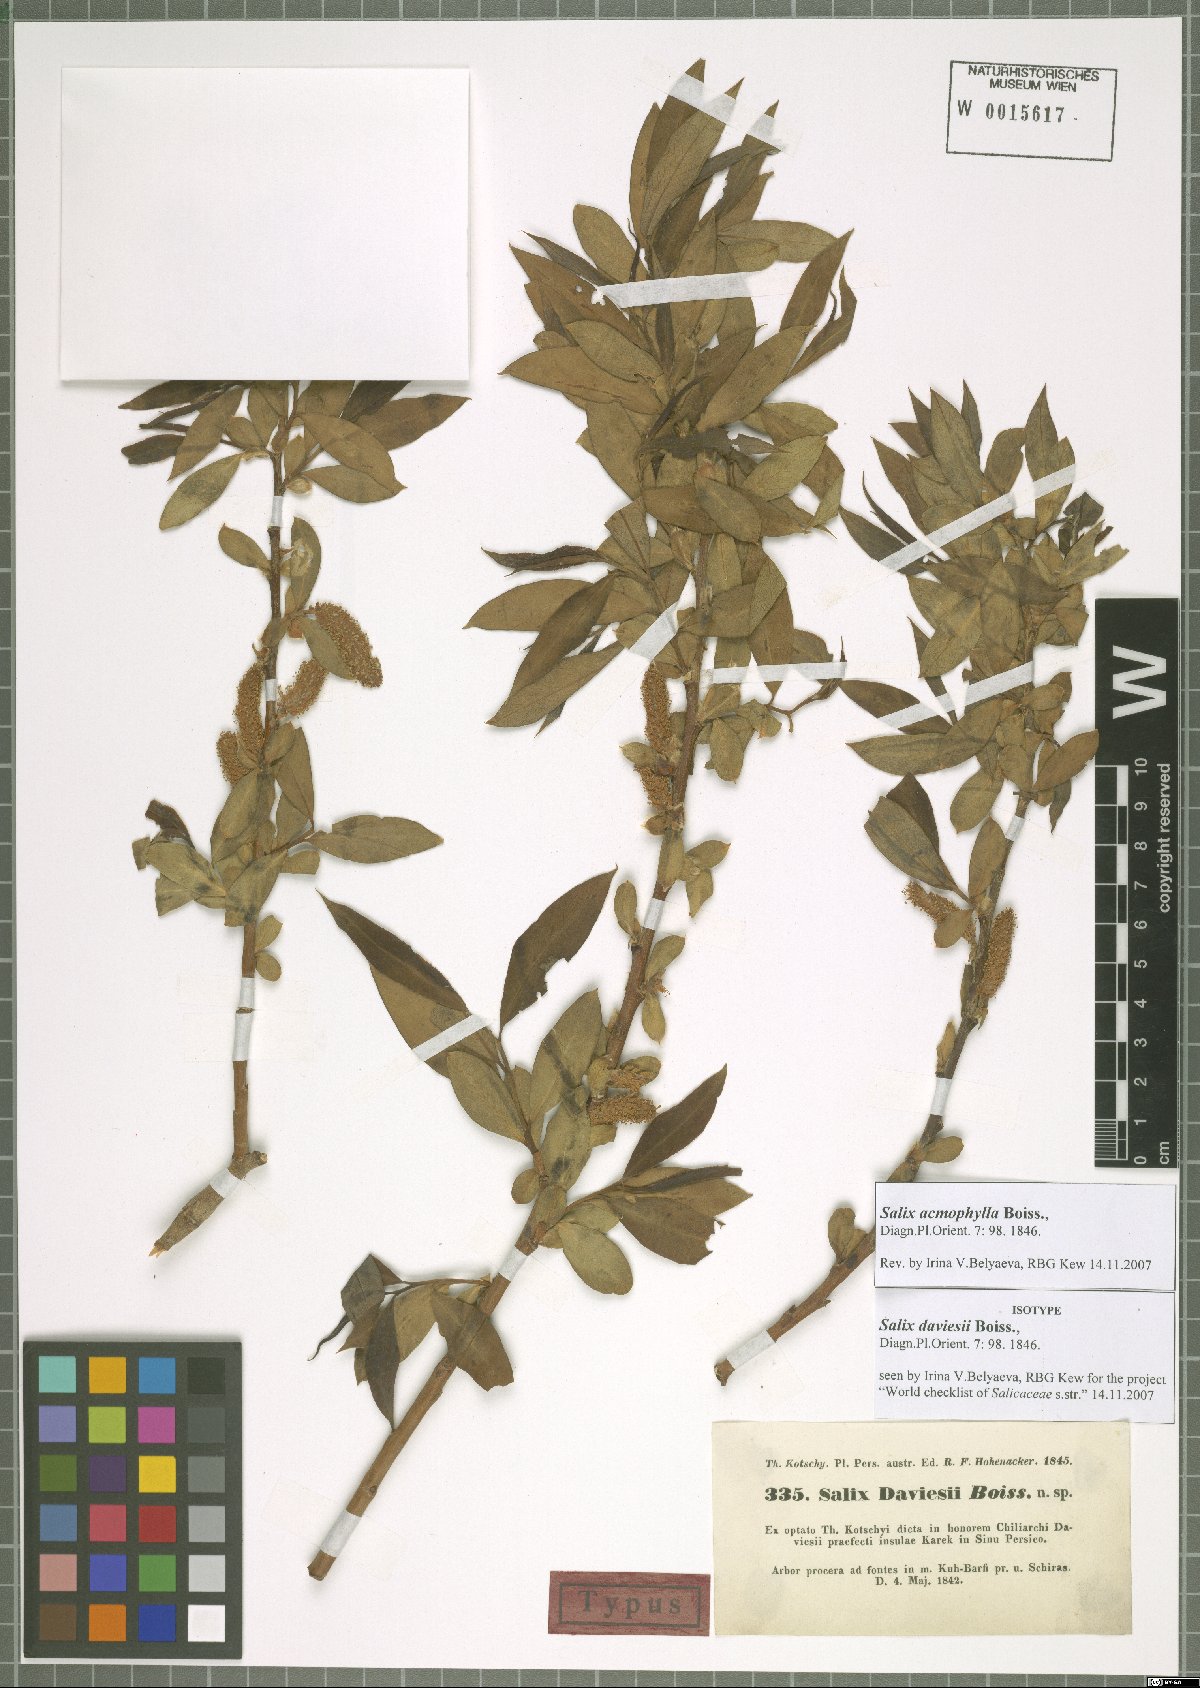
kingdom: Plantae
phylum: Tracheophyta
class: Magnoliopsida
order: Malpighiales
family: Salicaceae
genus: Salix
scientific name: Salix acmophylla
